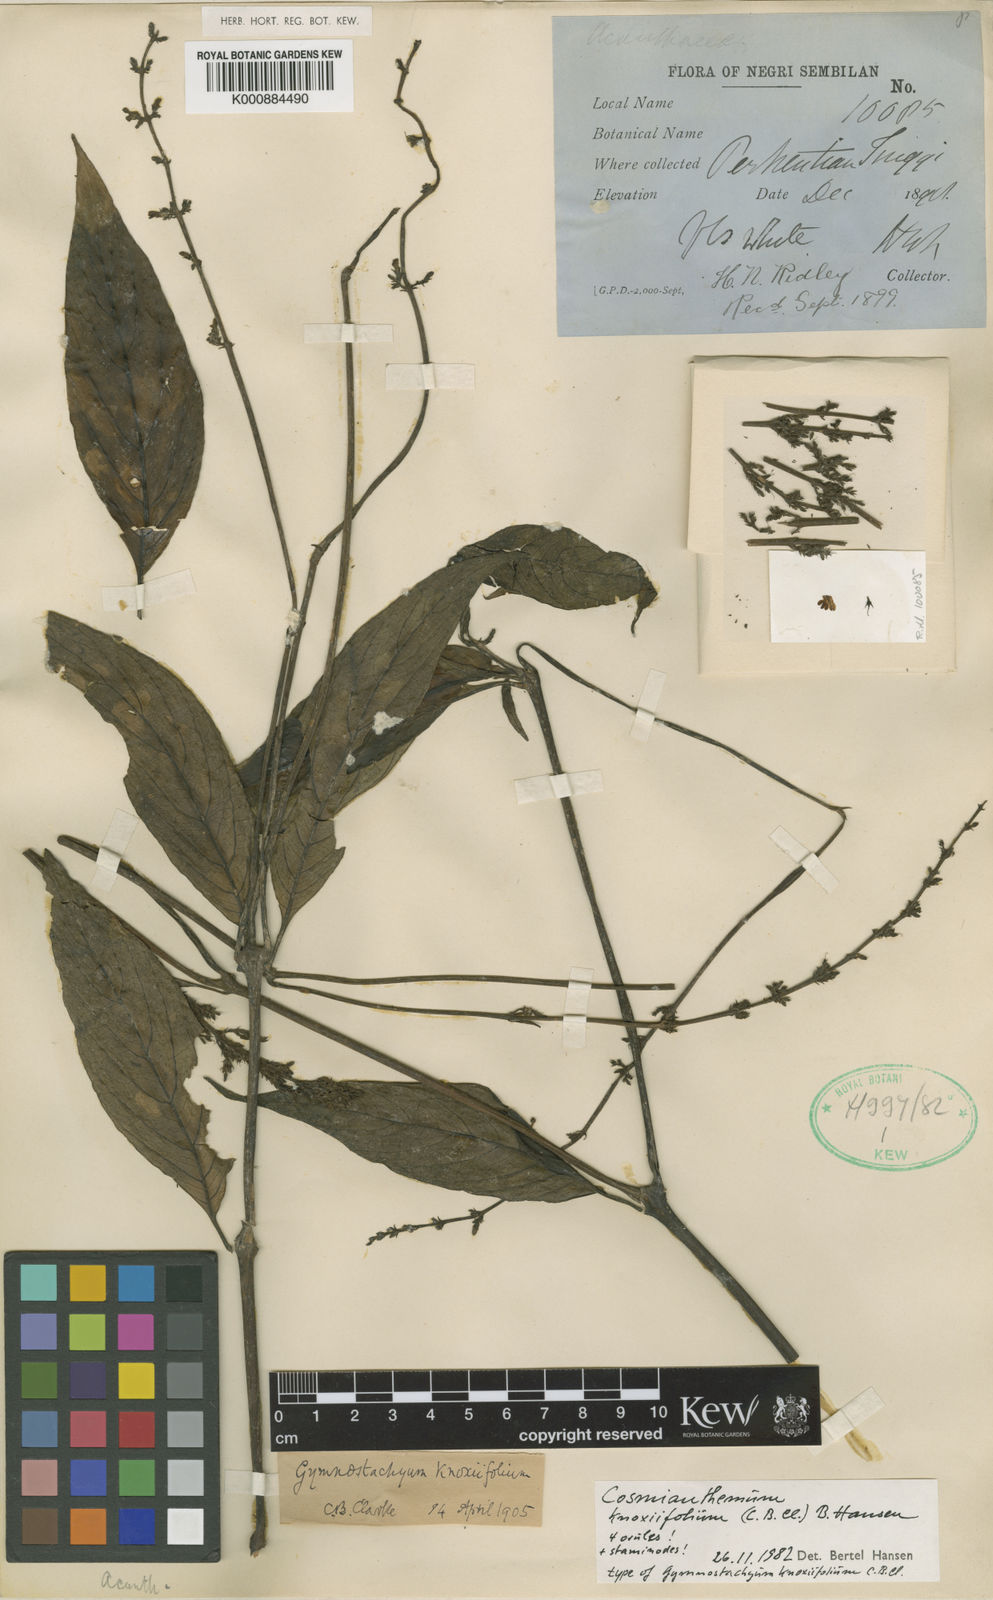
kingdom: Plantae
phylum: Tracheophyta
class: Magnoliopsida
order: Lamiales
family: Acanthaceae
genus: Cosmianthemum
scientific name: Cosmianthemum knoxiifolium
